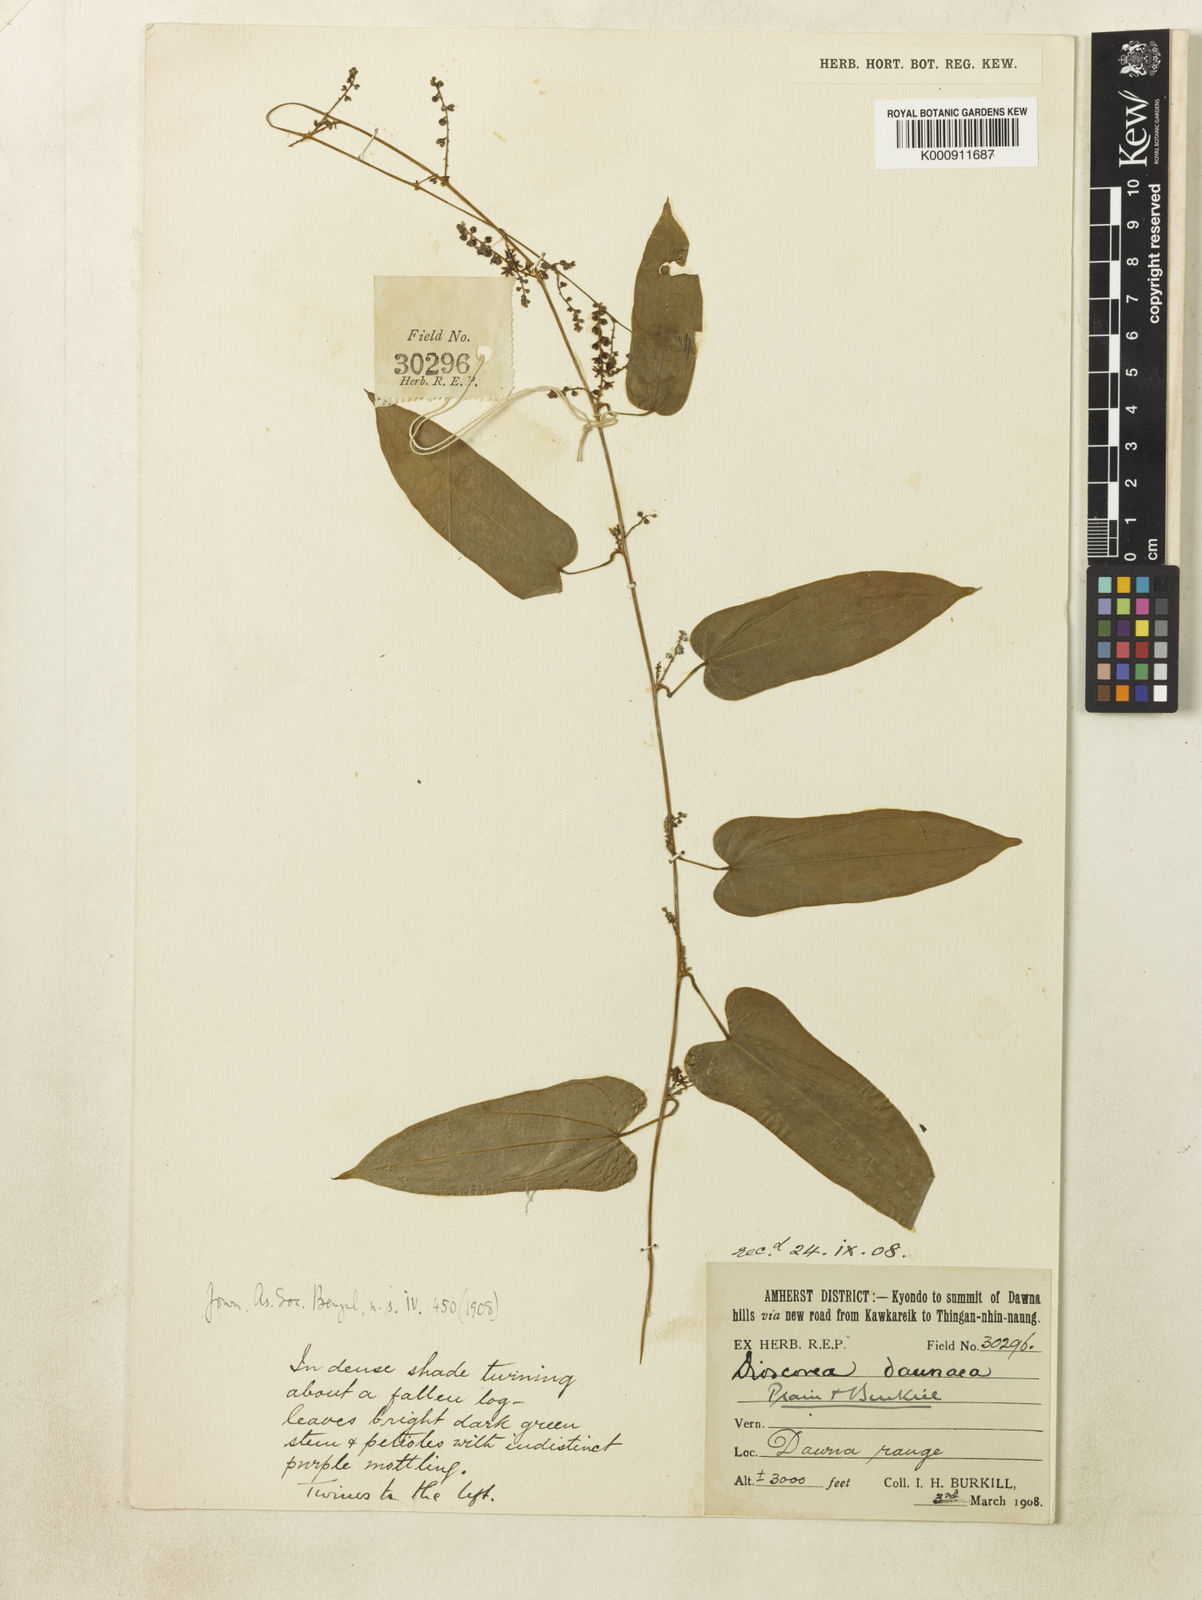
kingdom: Plantae
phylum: Tracheophyta
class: Liliopsida
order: Dioscoreales
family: Dioscoreaceae
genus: Dioscorea
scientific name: Dioscorea
